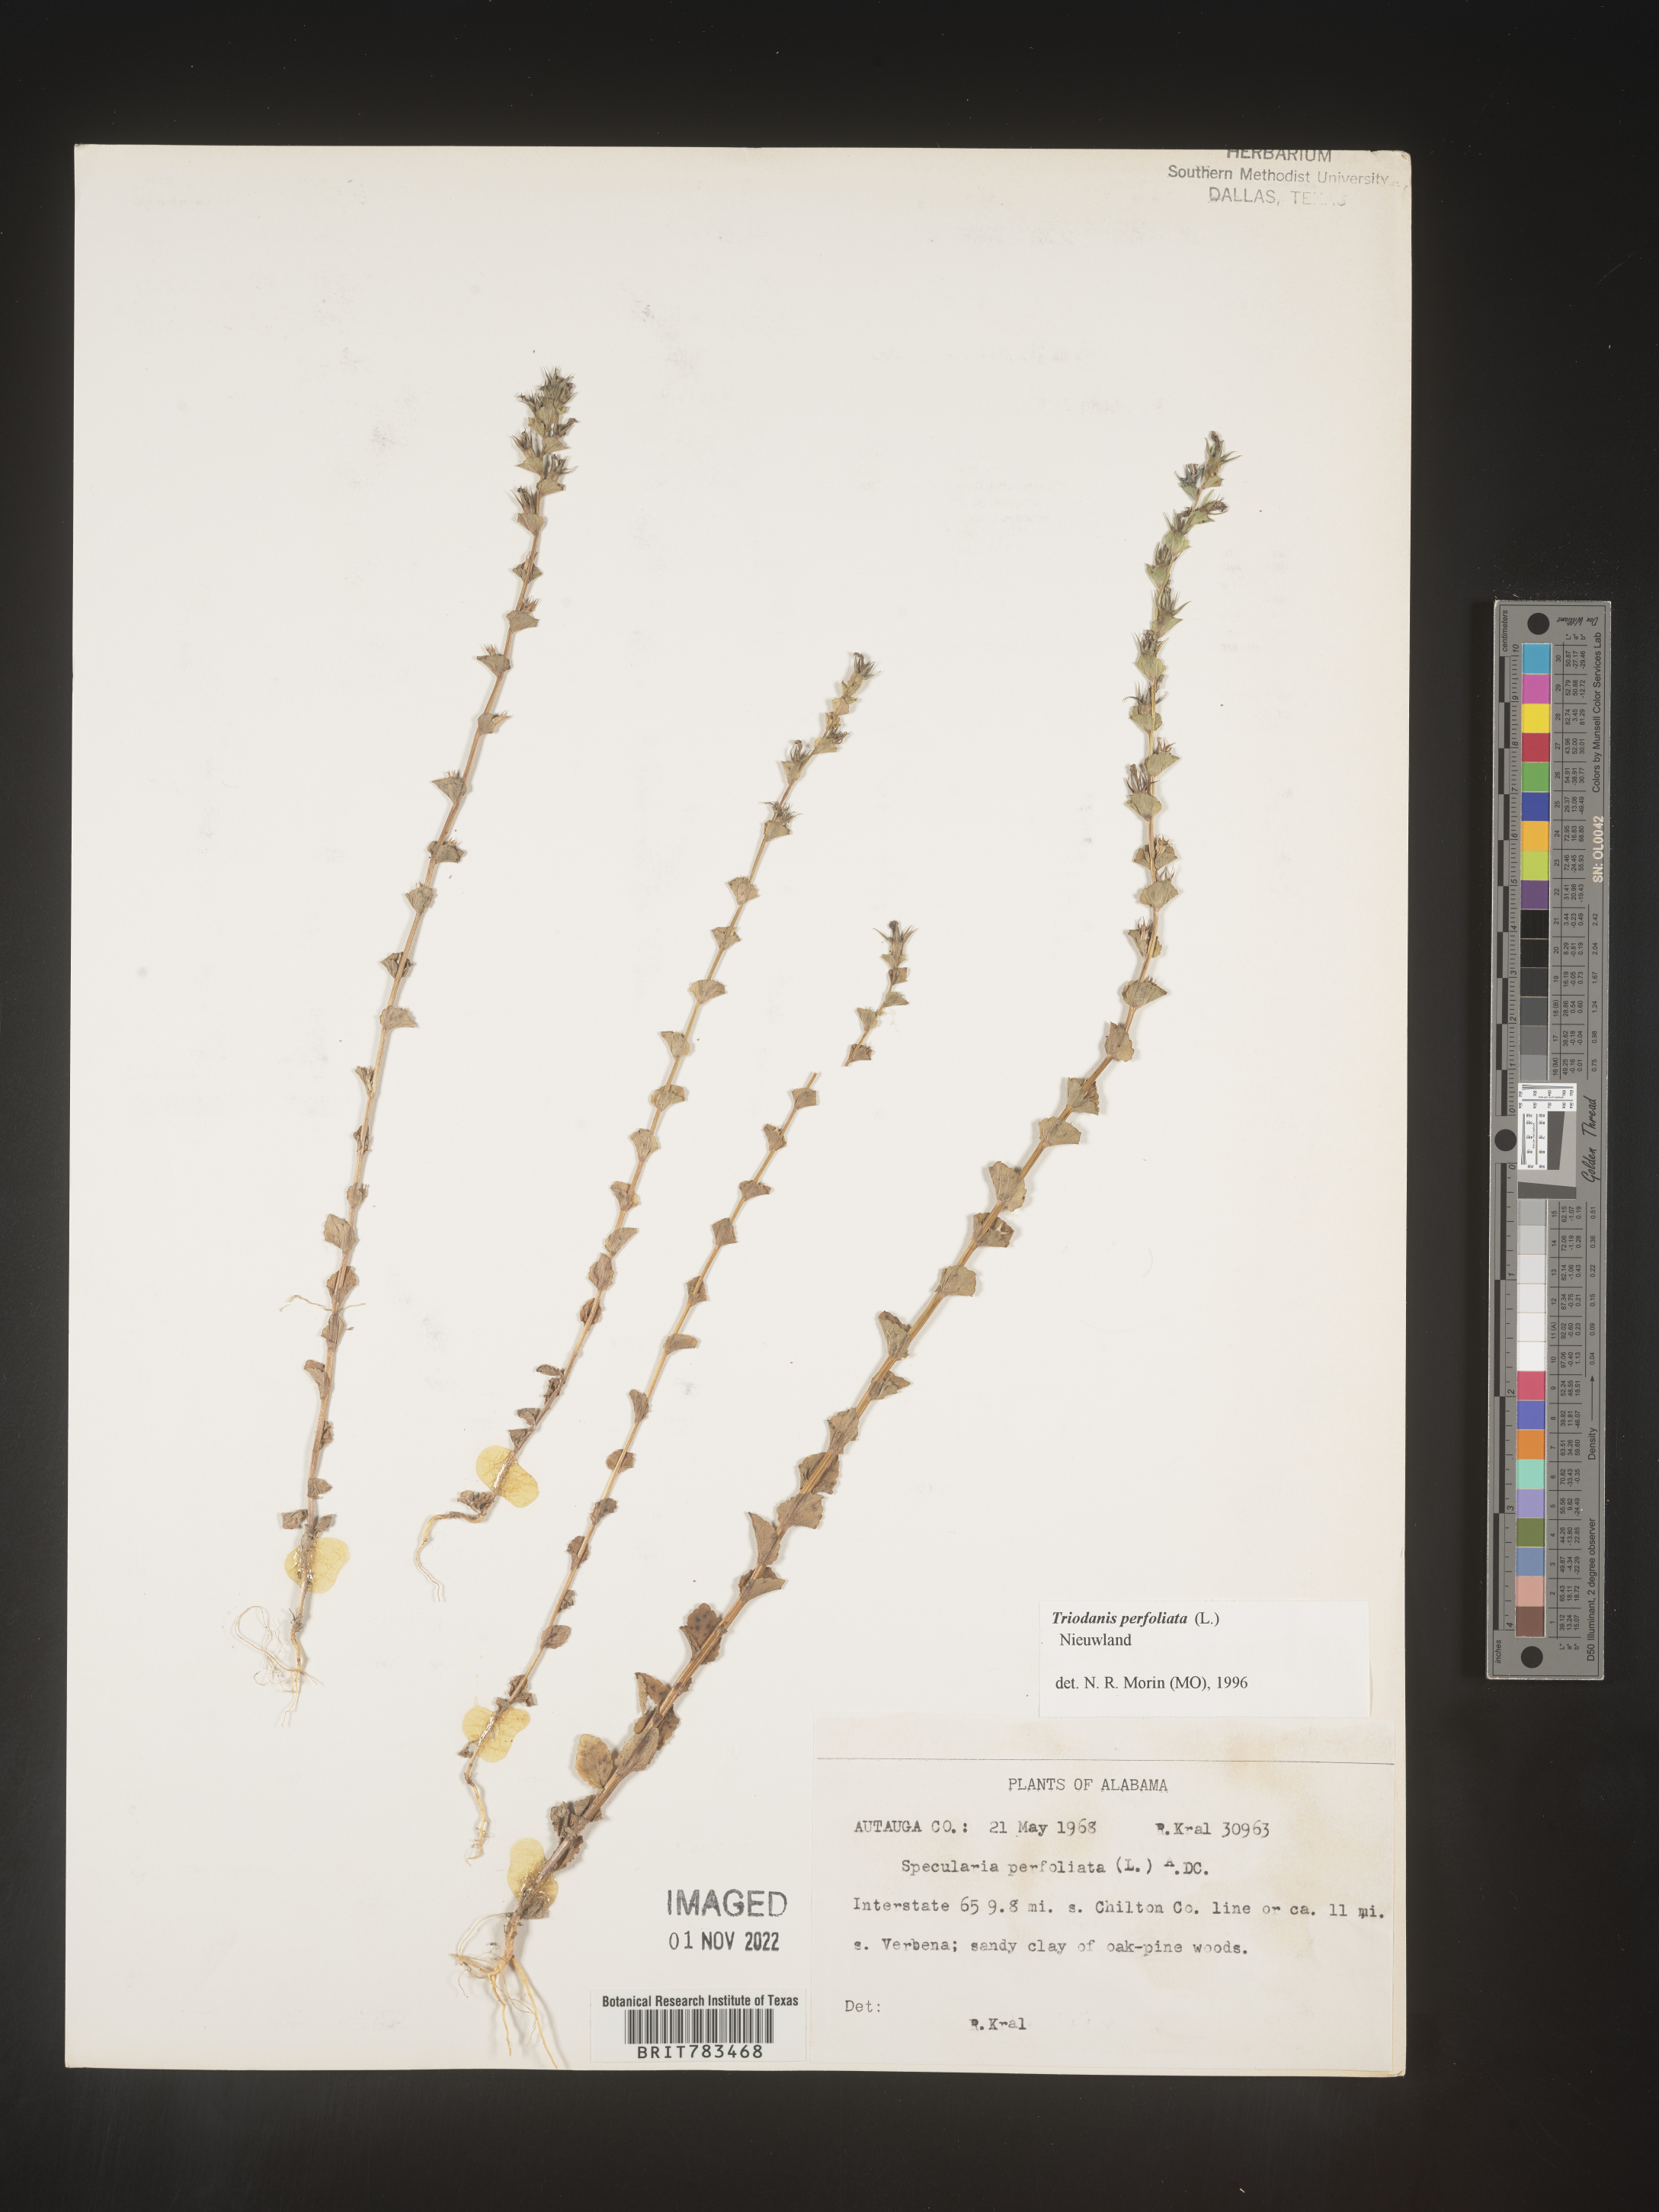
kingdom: Plantae
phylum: Tracheophyta
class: Magnoliopsida
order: Asterales
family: Campanulaceae
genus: Triodanis
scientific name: Triodanis perfoliata
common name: Clasping venus' looking-glass
